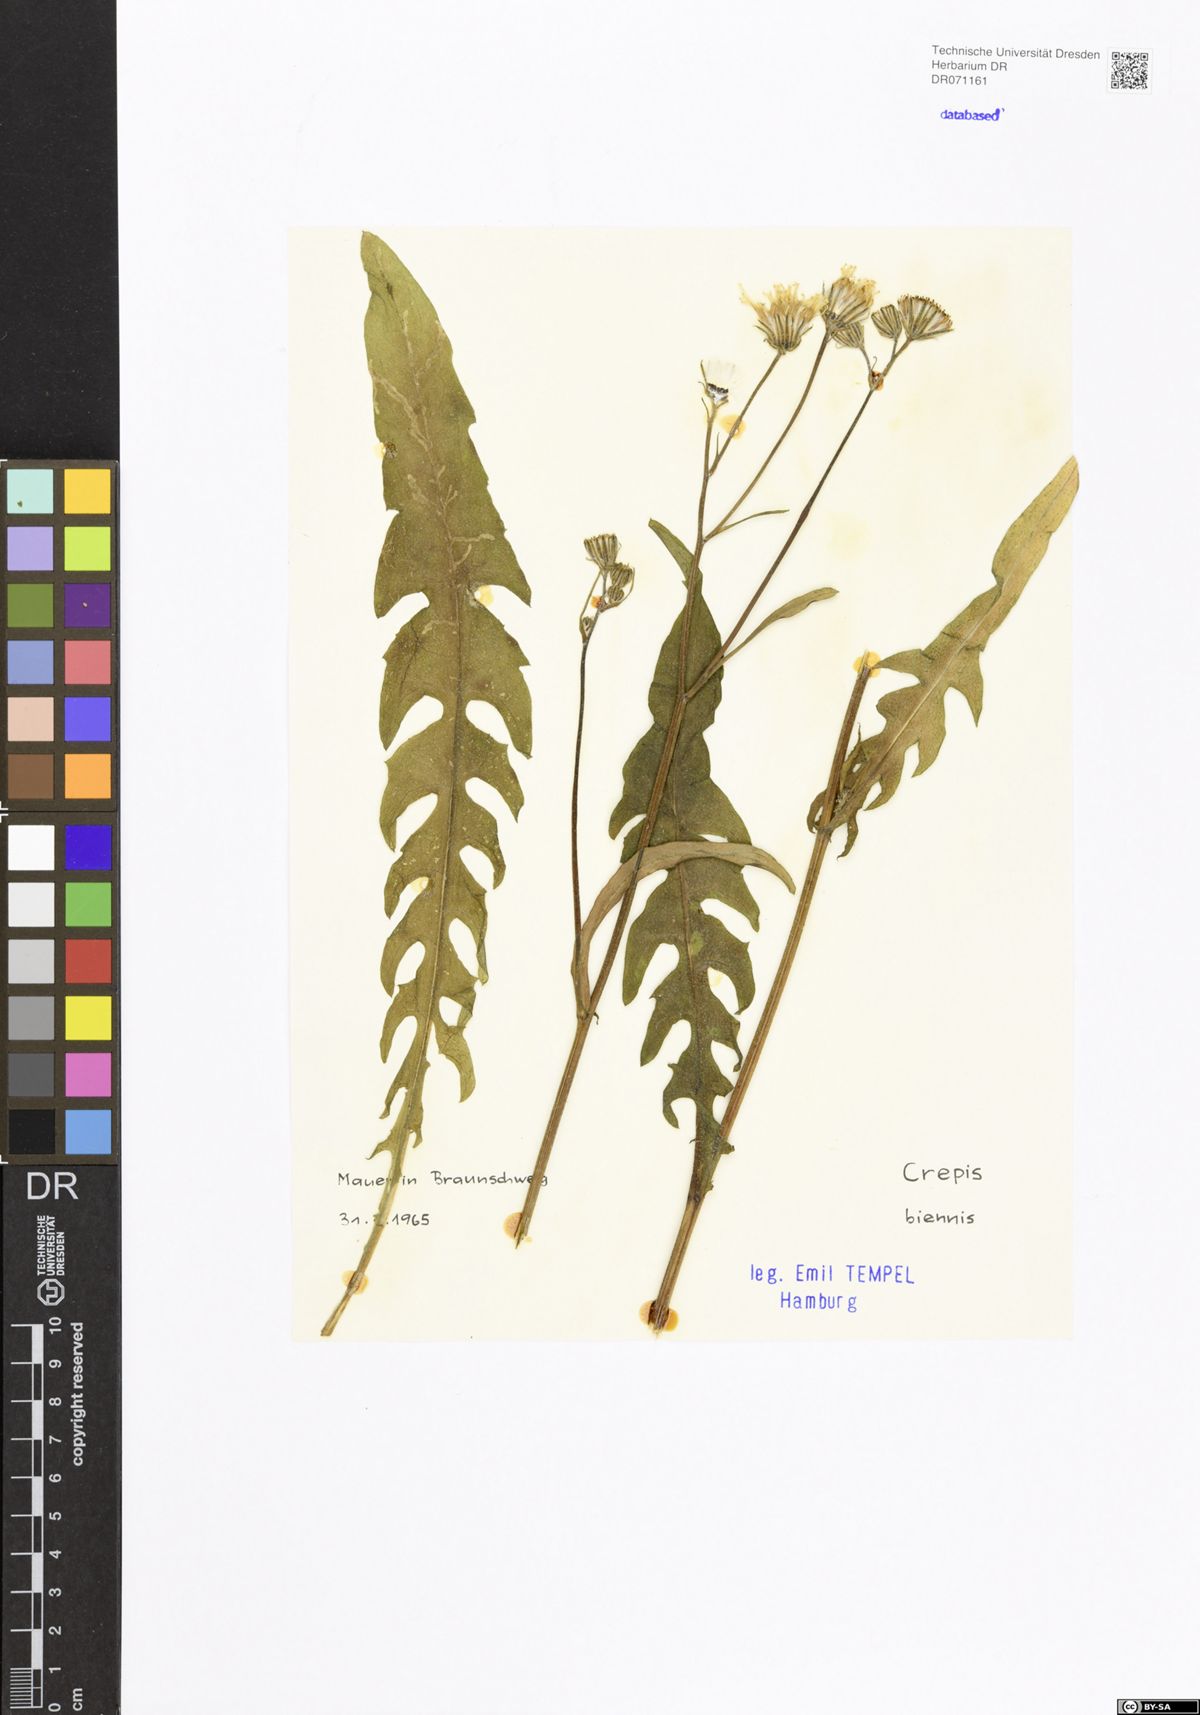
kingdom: Plantae
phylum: Tracheophyta
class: Magnoliopsida
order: Asterales
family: Asteraceae
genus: Crepis
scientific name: Crepis biennis
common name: Rough hawk's-beard
